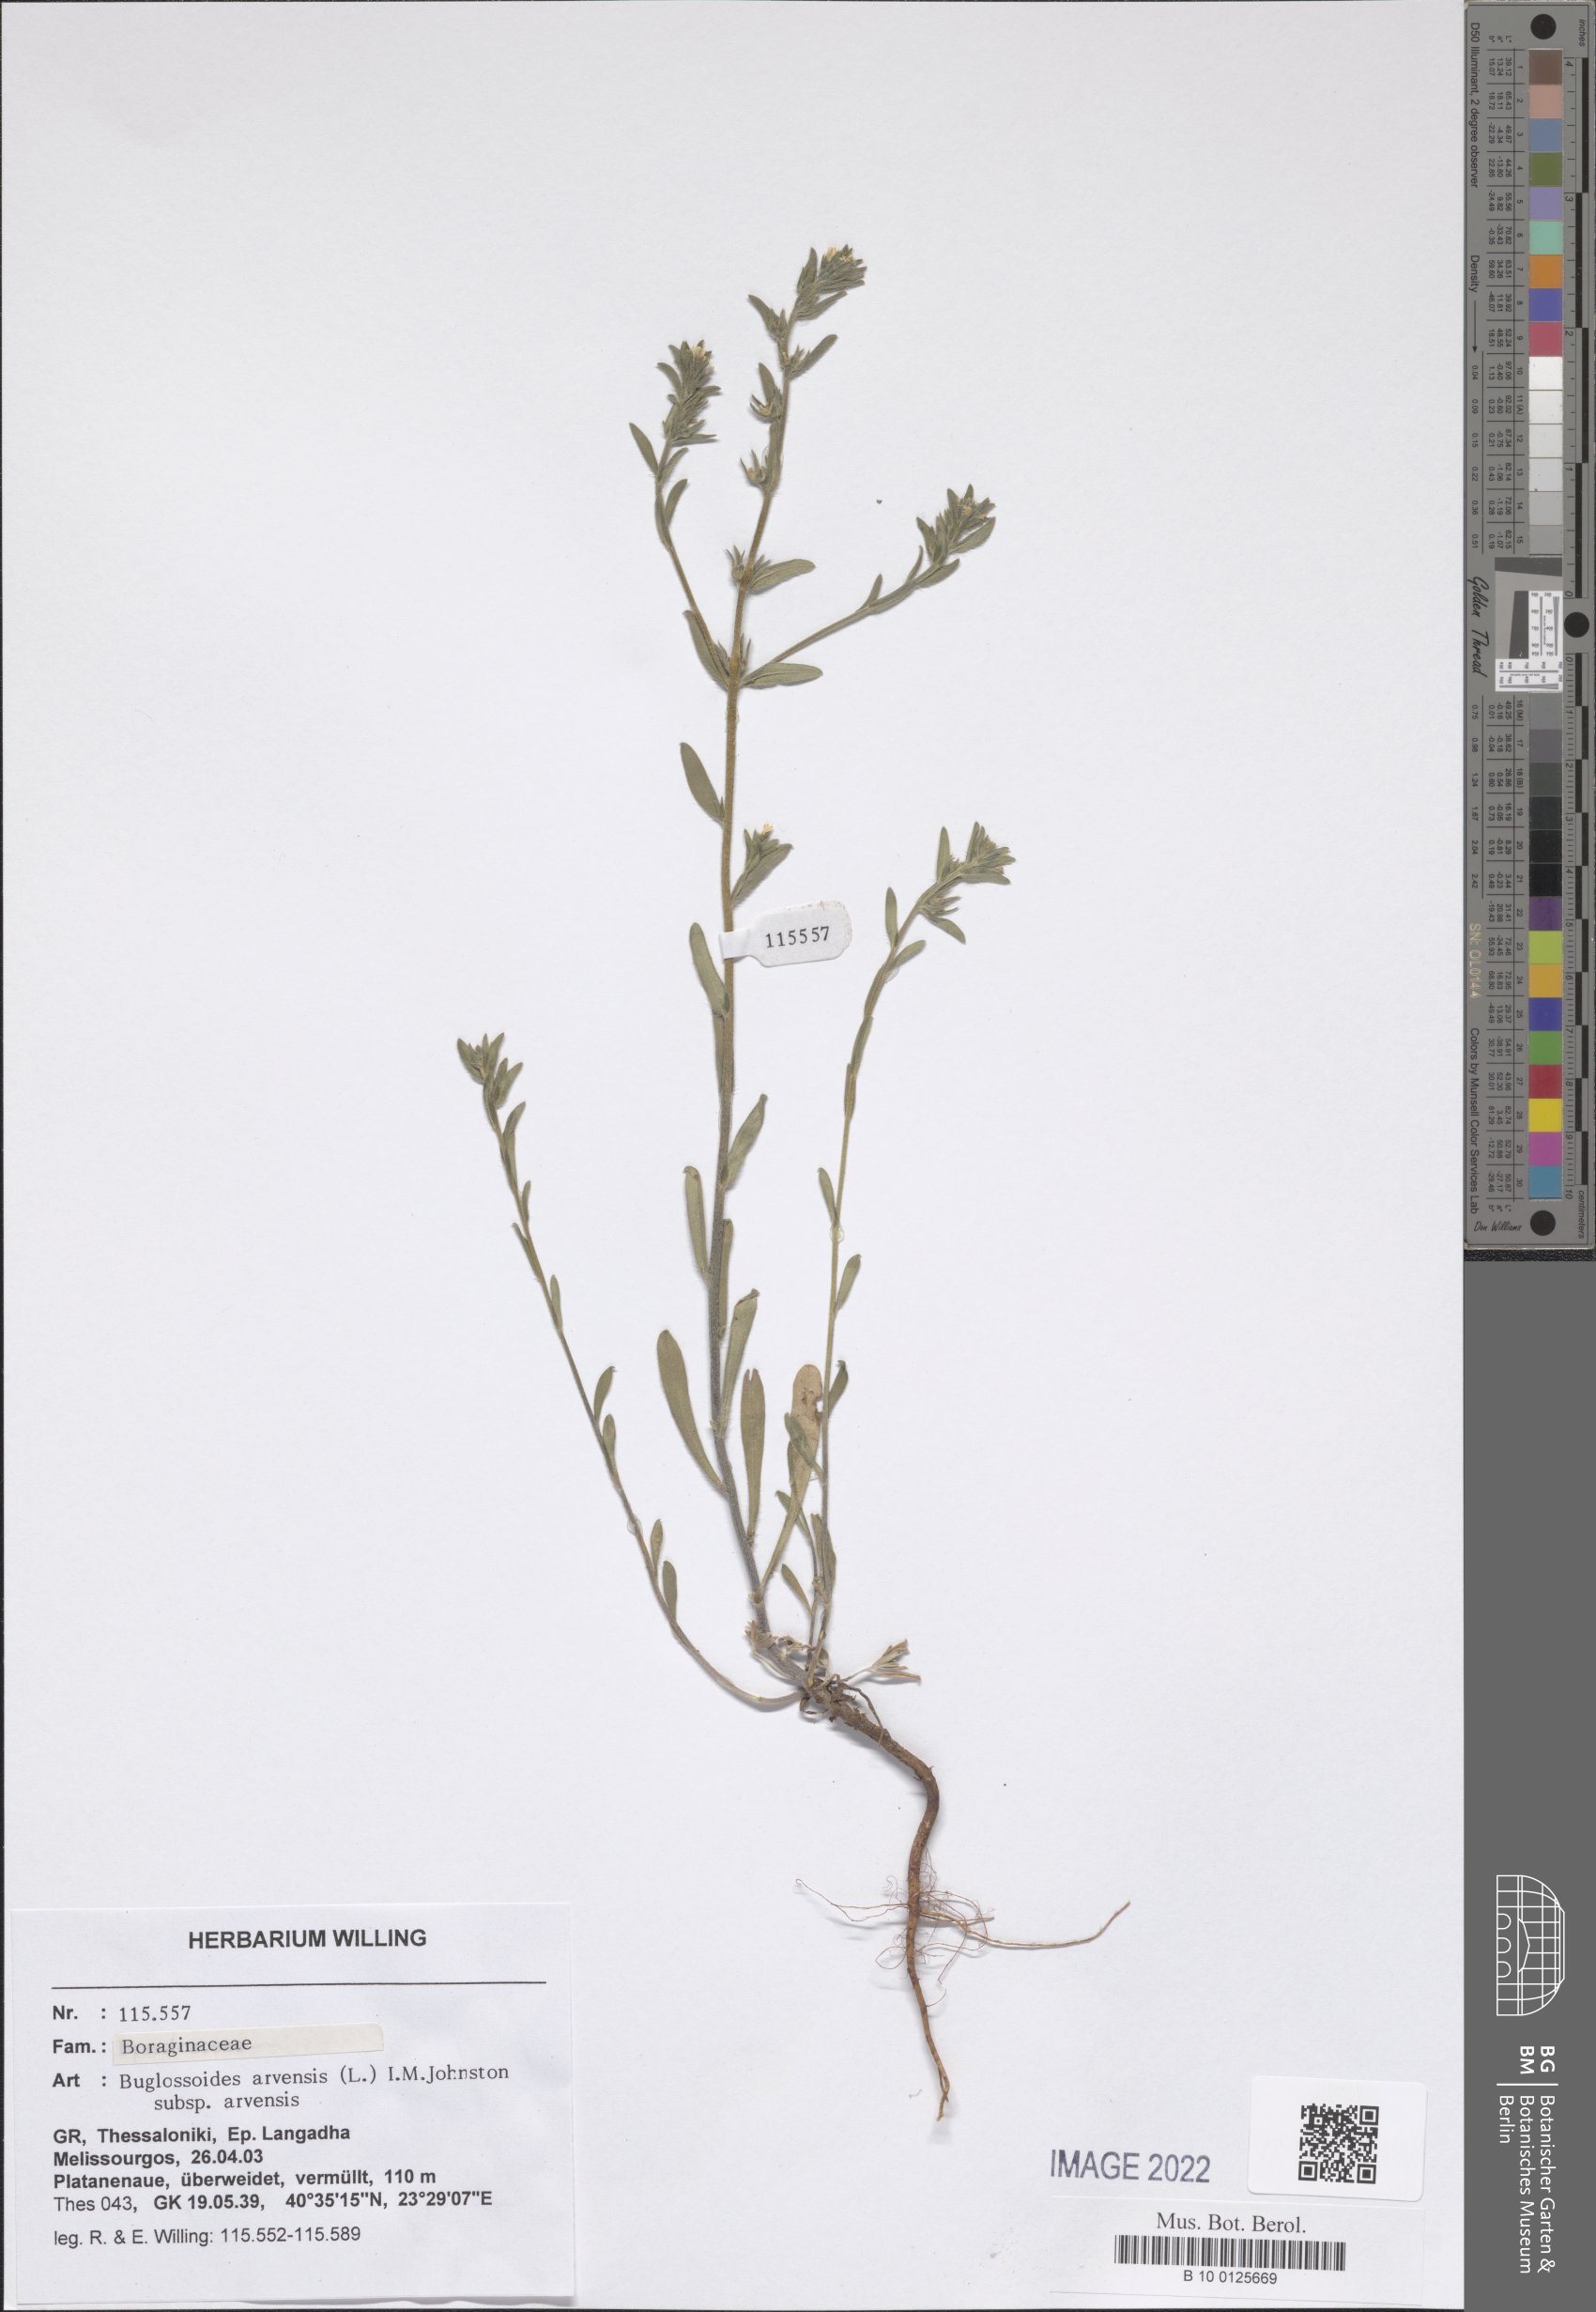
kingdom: Plantae
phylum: Tracheophyta
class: Magnoliopsida
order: Boraginales
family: Boraginaceae
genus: Buglossoides
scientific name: Buglossoides arvensis
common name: Corn gromwell
